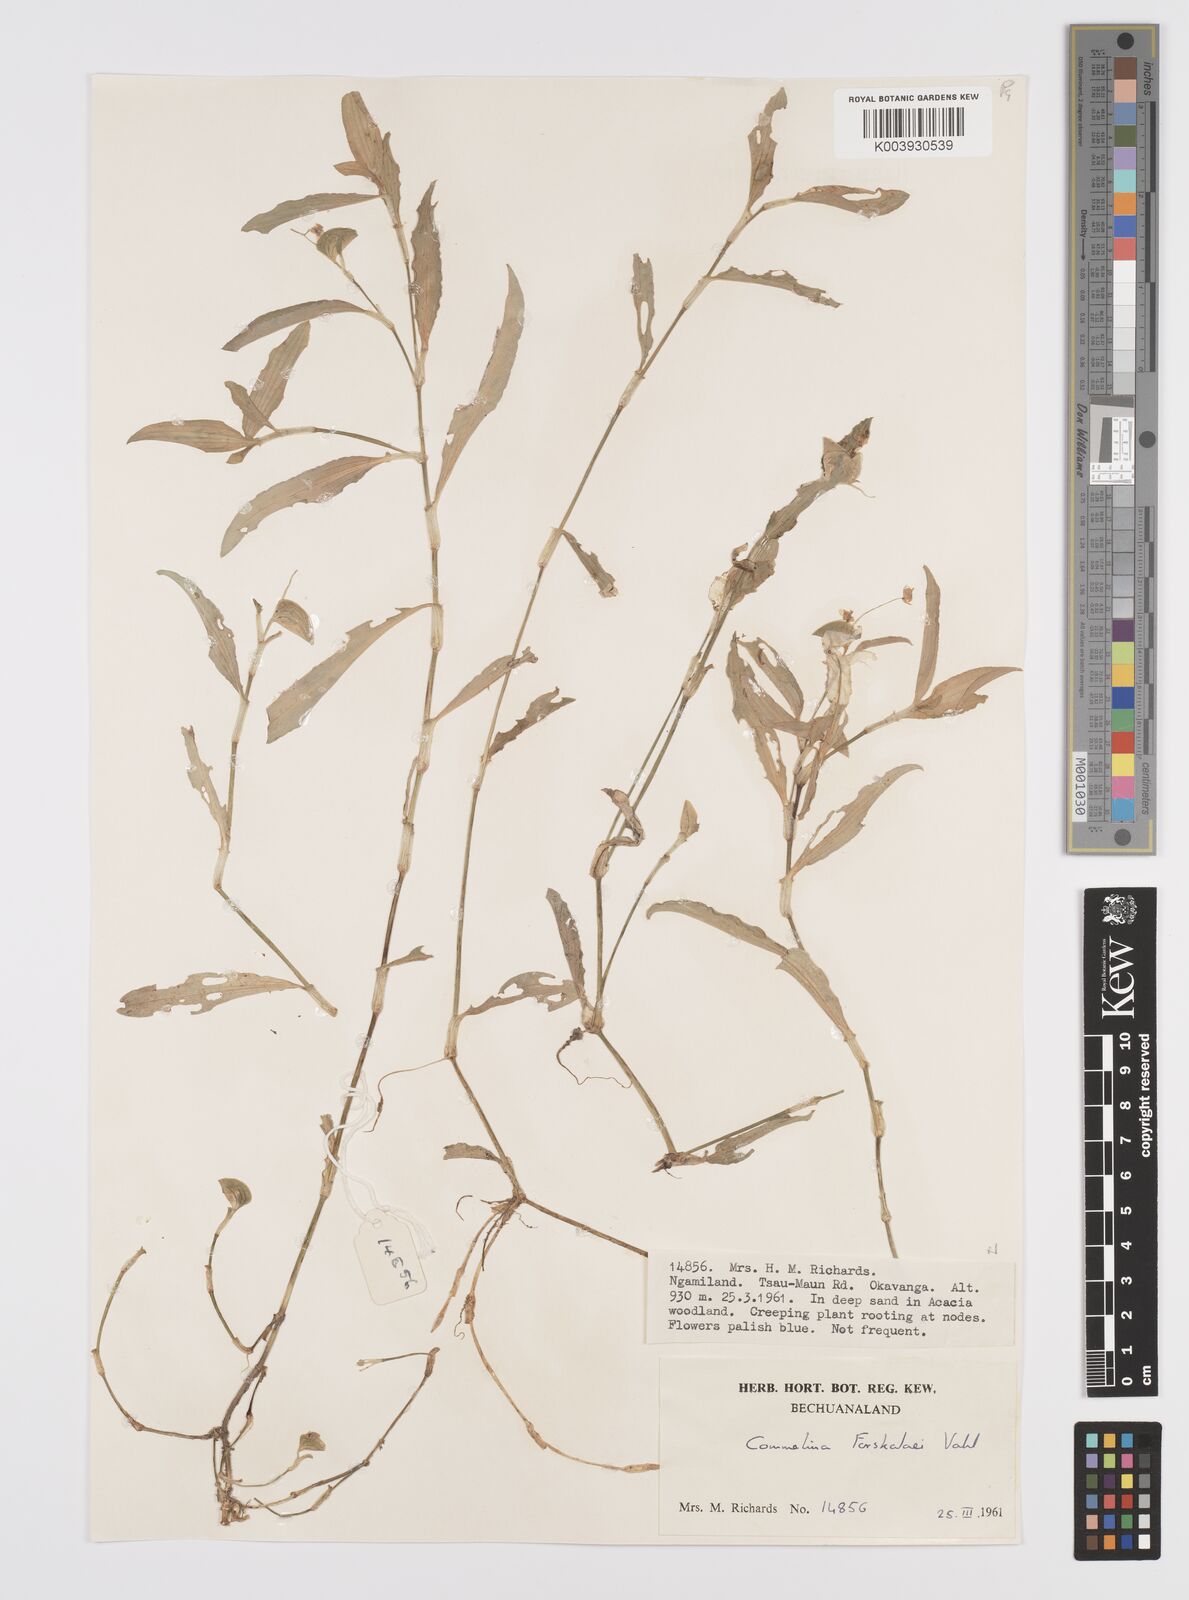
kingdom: Plantae
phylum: Tracheophyta
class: Liliopsida
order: Commelinales
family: Commelinaceae
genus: Commelina
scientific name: Commelina forskaolii
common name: Rat's ear
